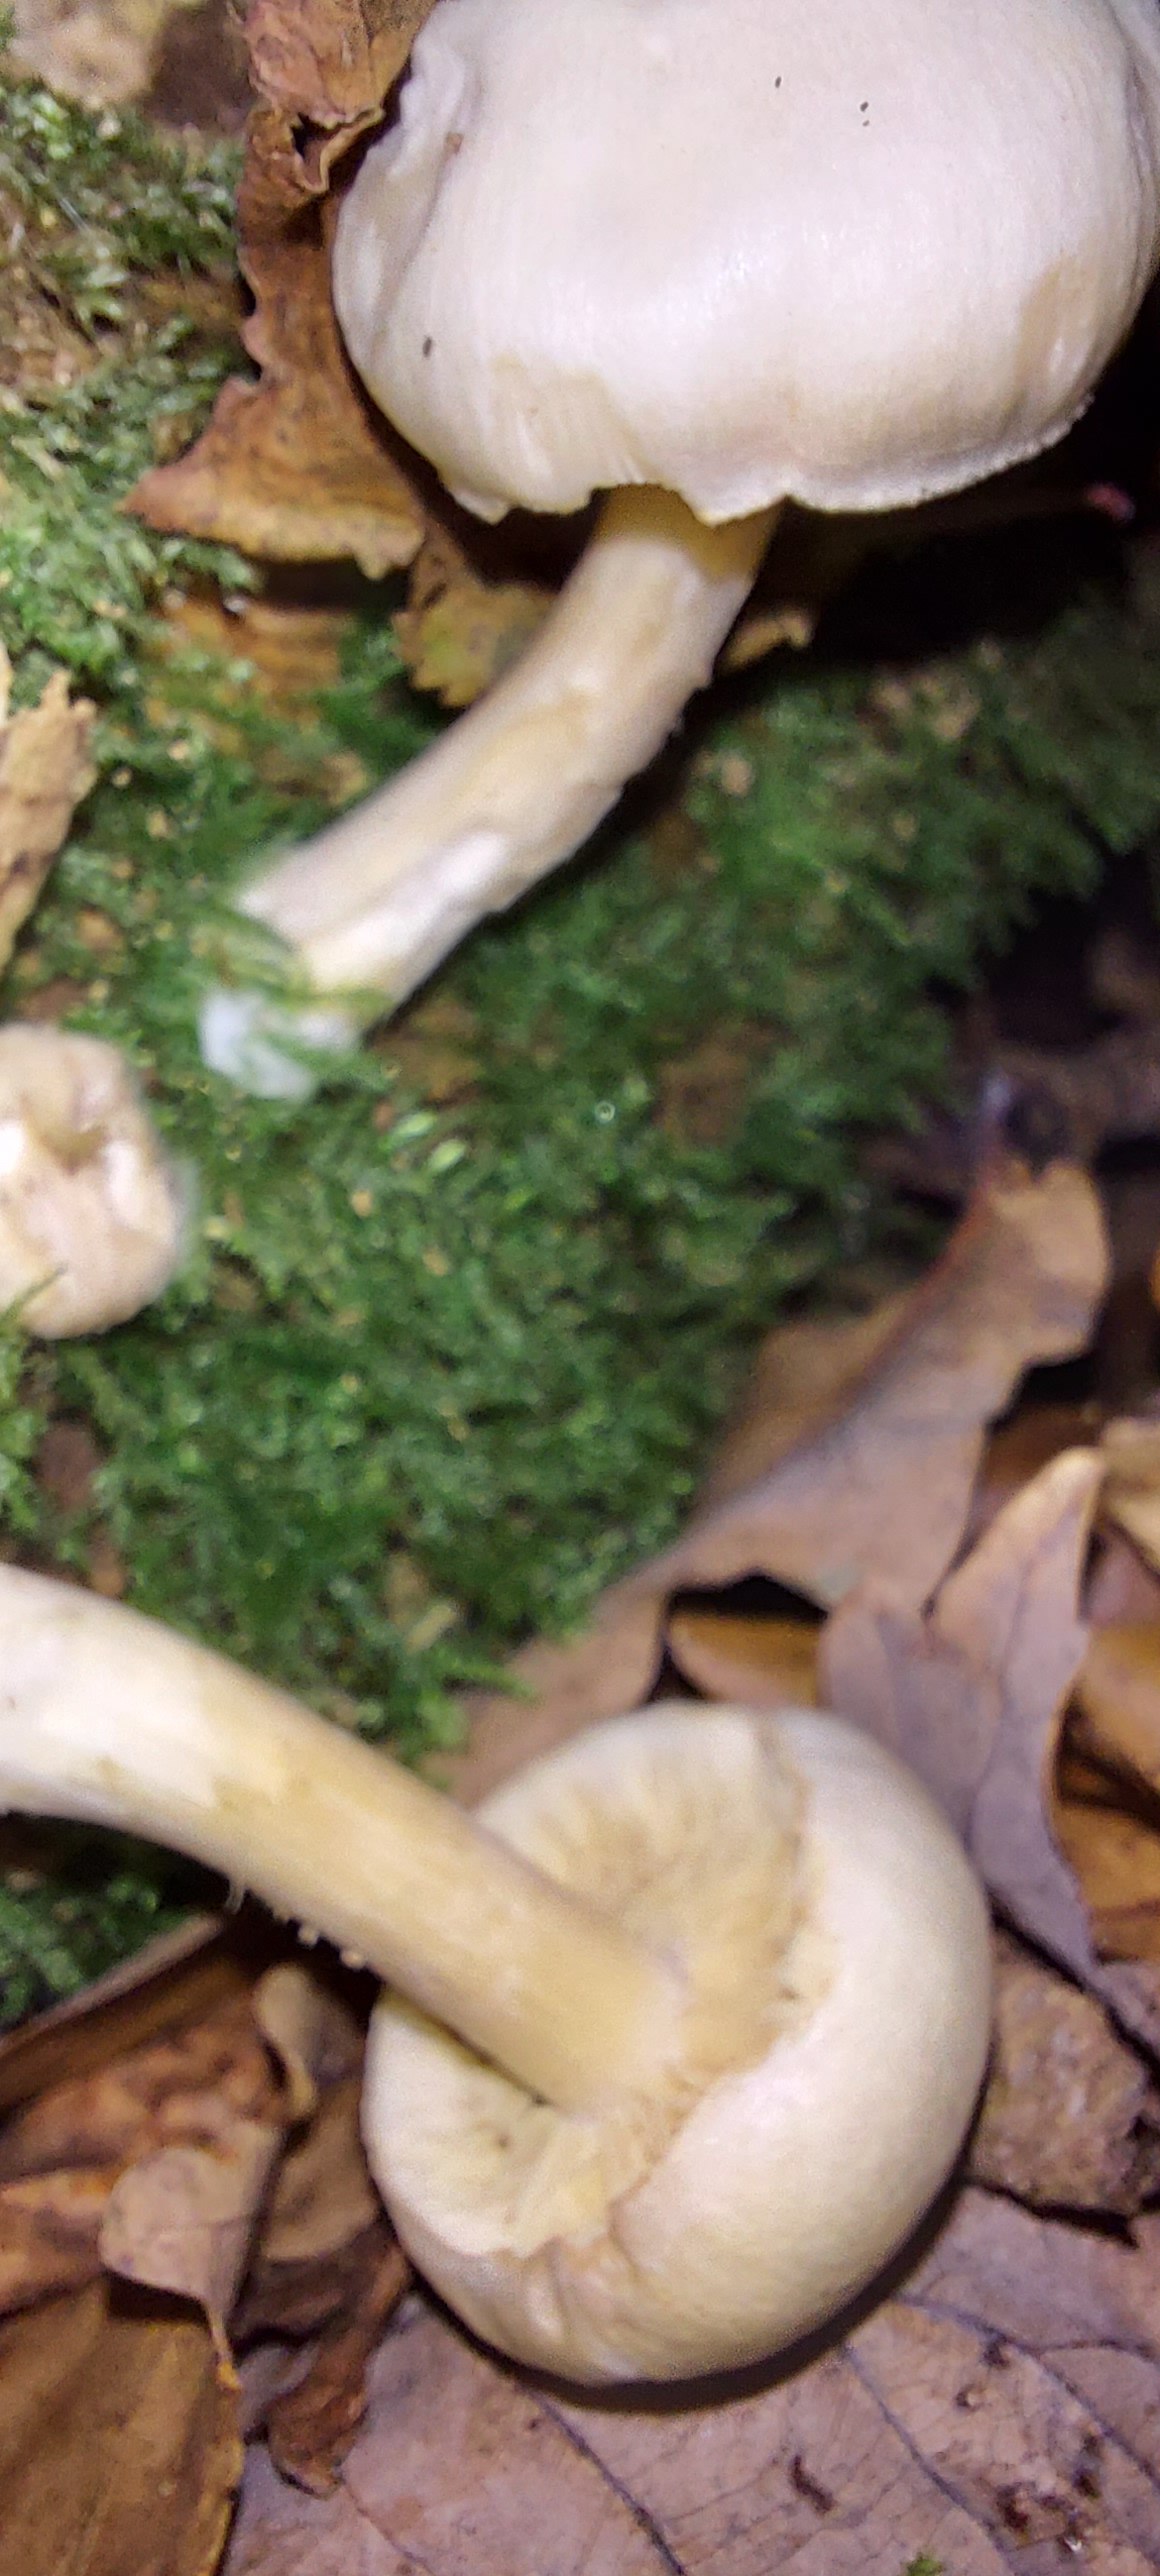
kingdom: Fungi
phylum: Basidiomycota
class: Agaricomycetes
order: Agaricales
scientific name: Agaricales
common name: champignonordenen
